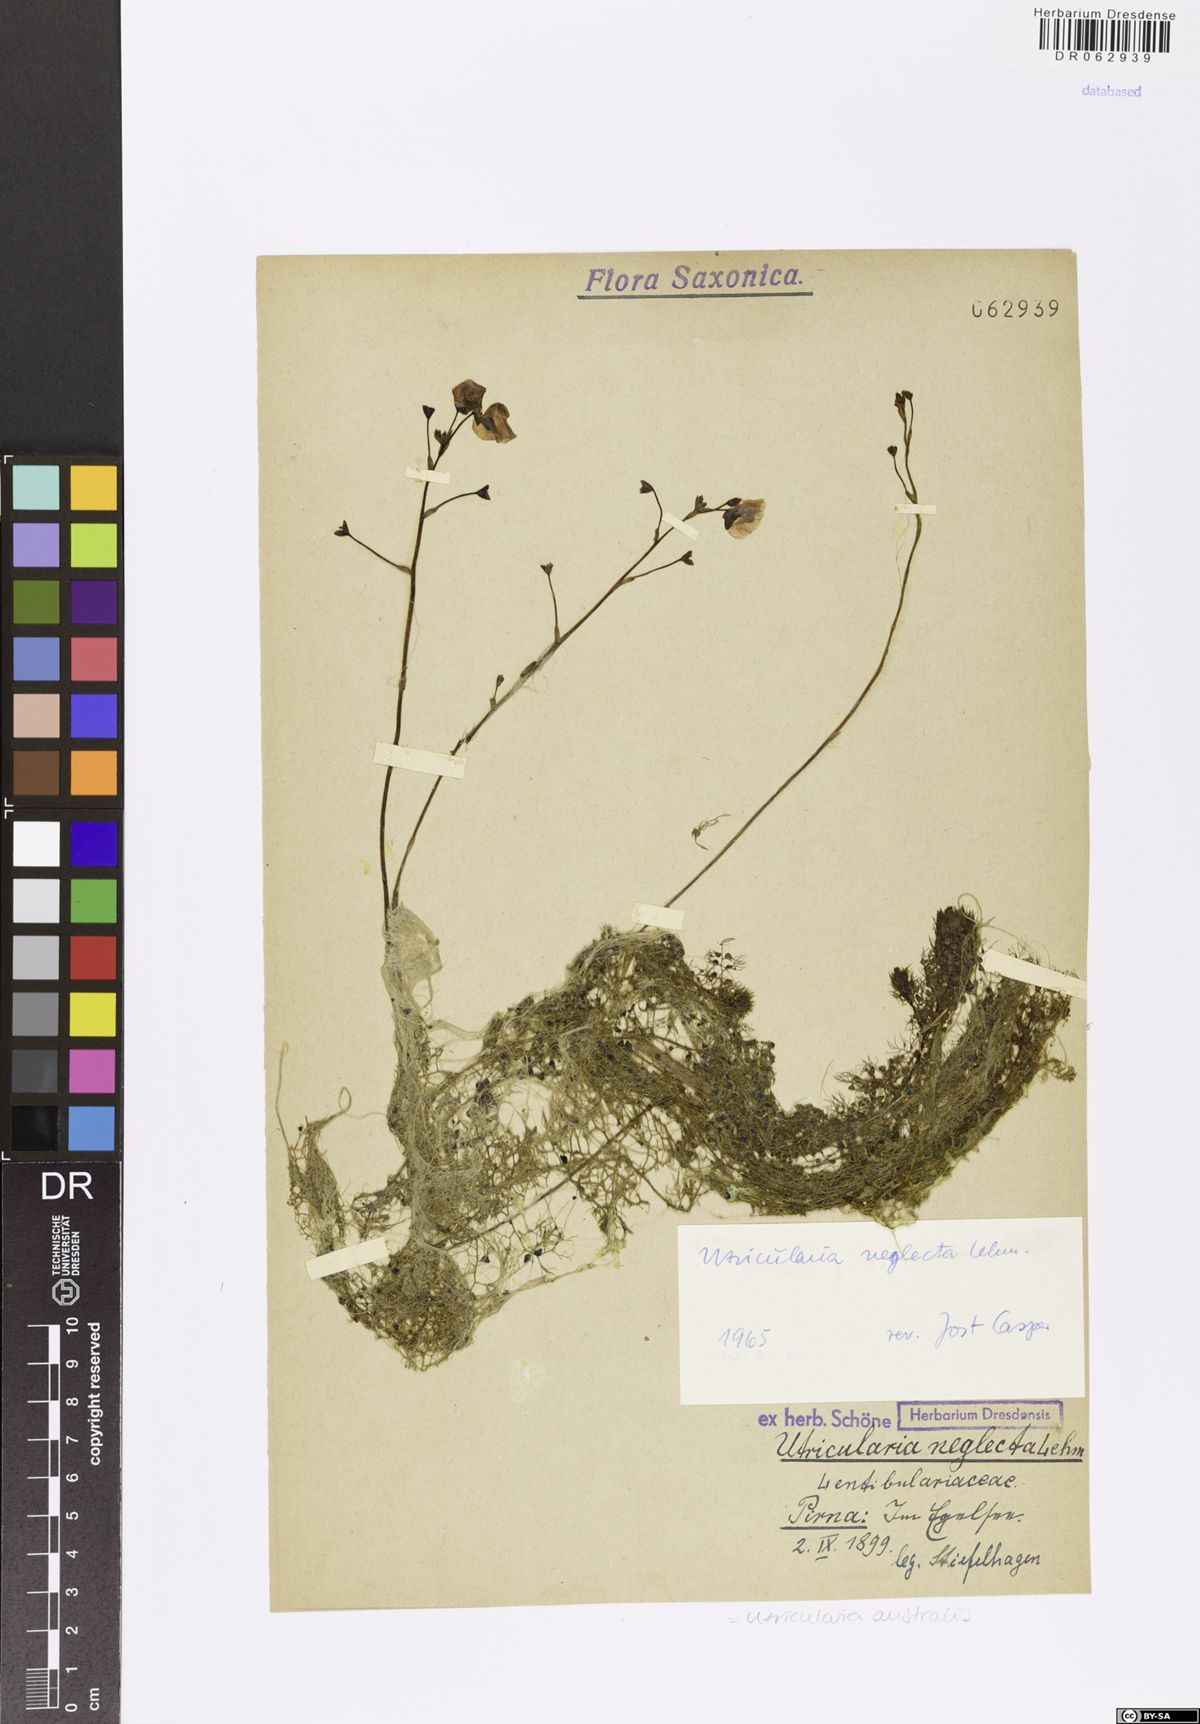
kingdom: Plantae
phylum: Tracheophyta
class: Magnoliopsida
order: Lamiales
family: Lentibulariaceae
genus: Utricularia
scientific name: Utricularia australis
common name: Bladderwort
